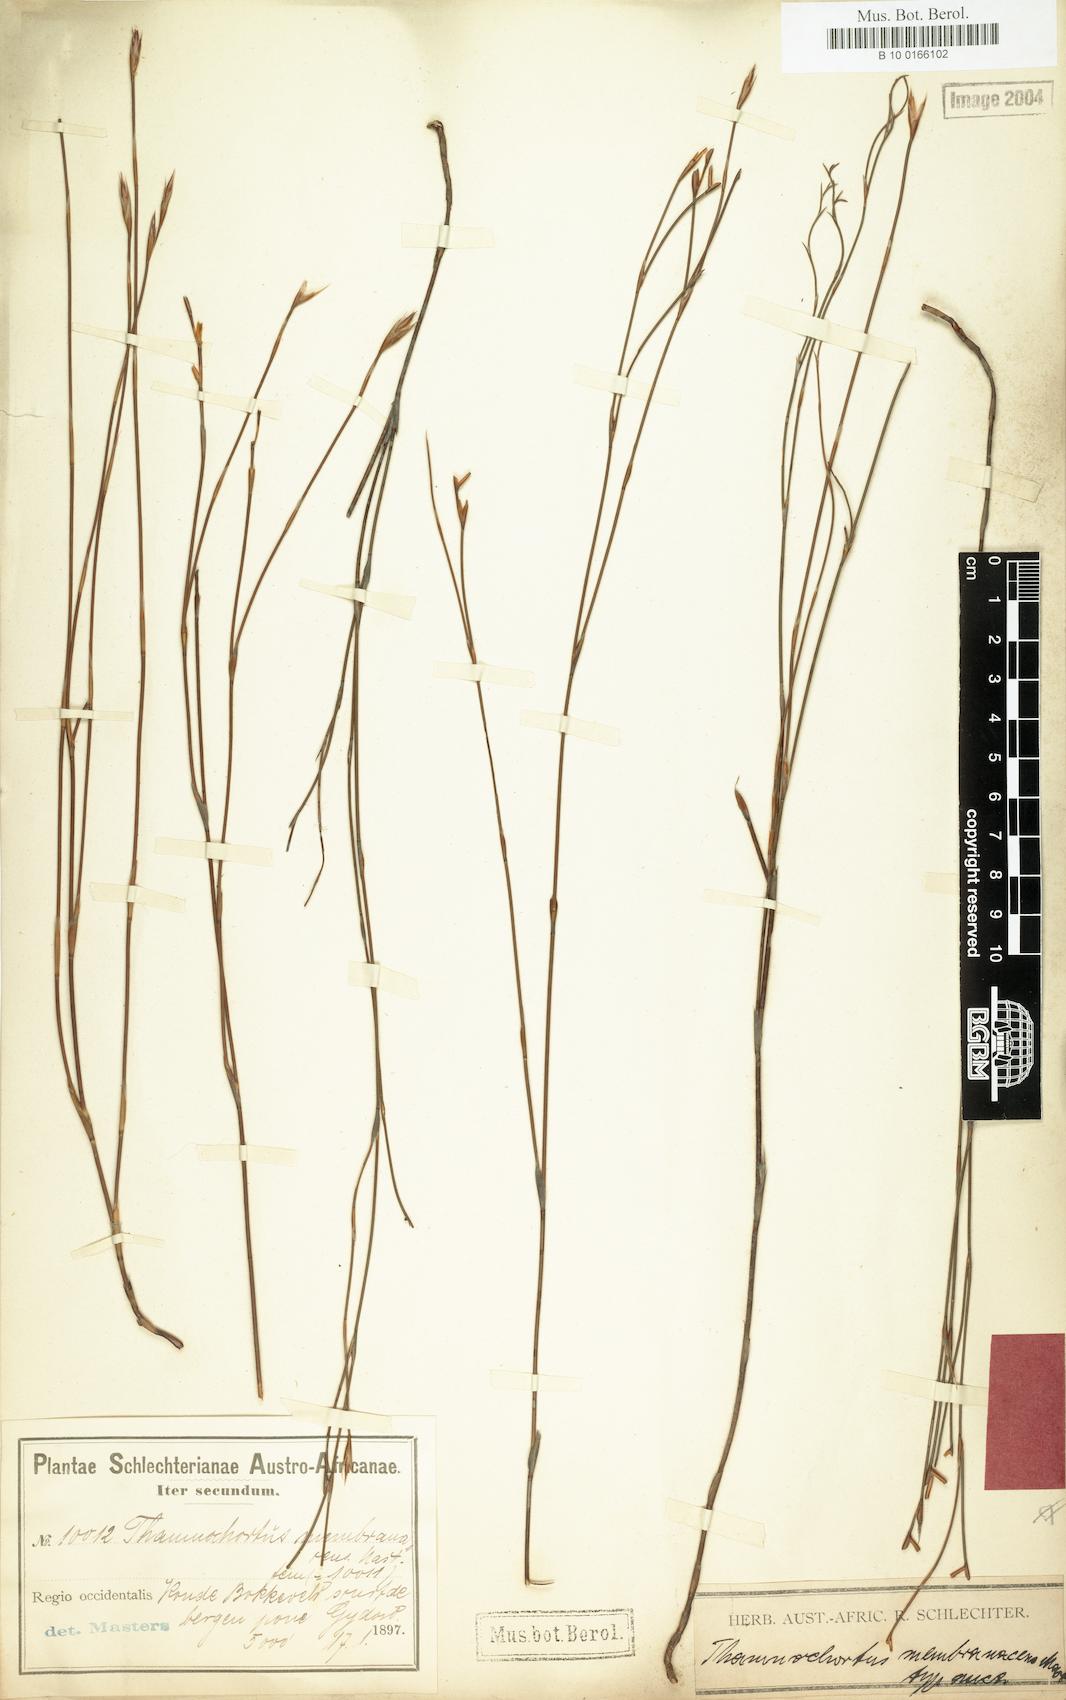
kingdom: Plantae
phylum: Tracheophyta
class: Liliopsida
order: Poales
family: Restionaceae
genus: Restio
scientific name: Restio distichus
